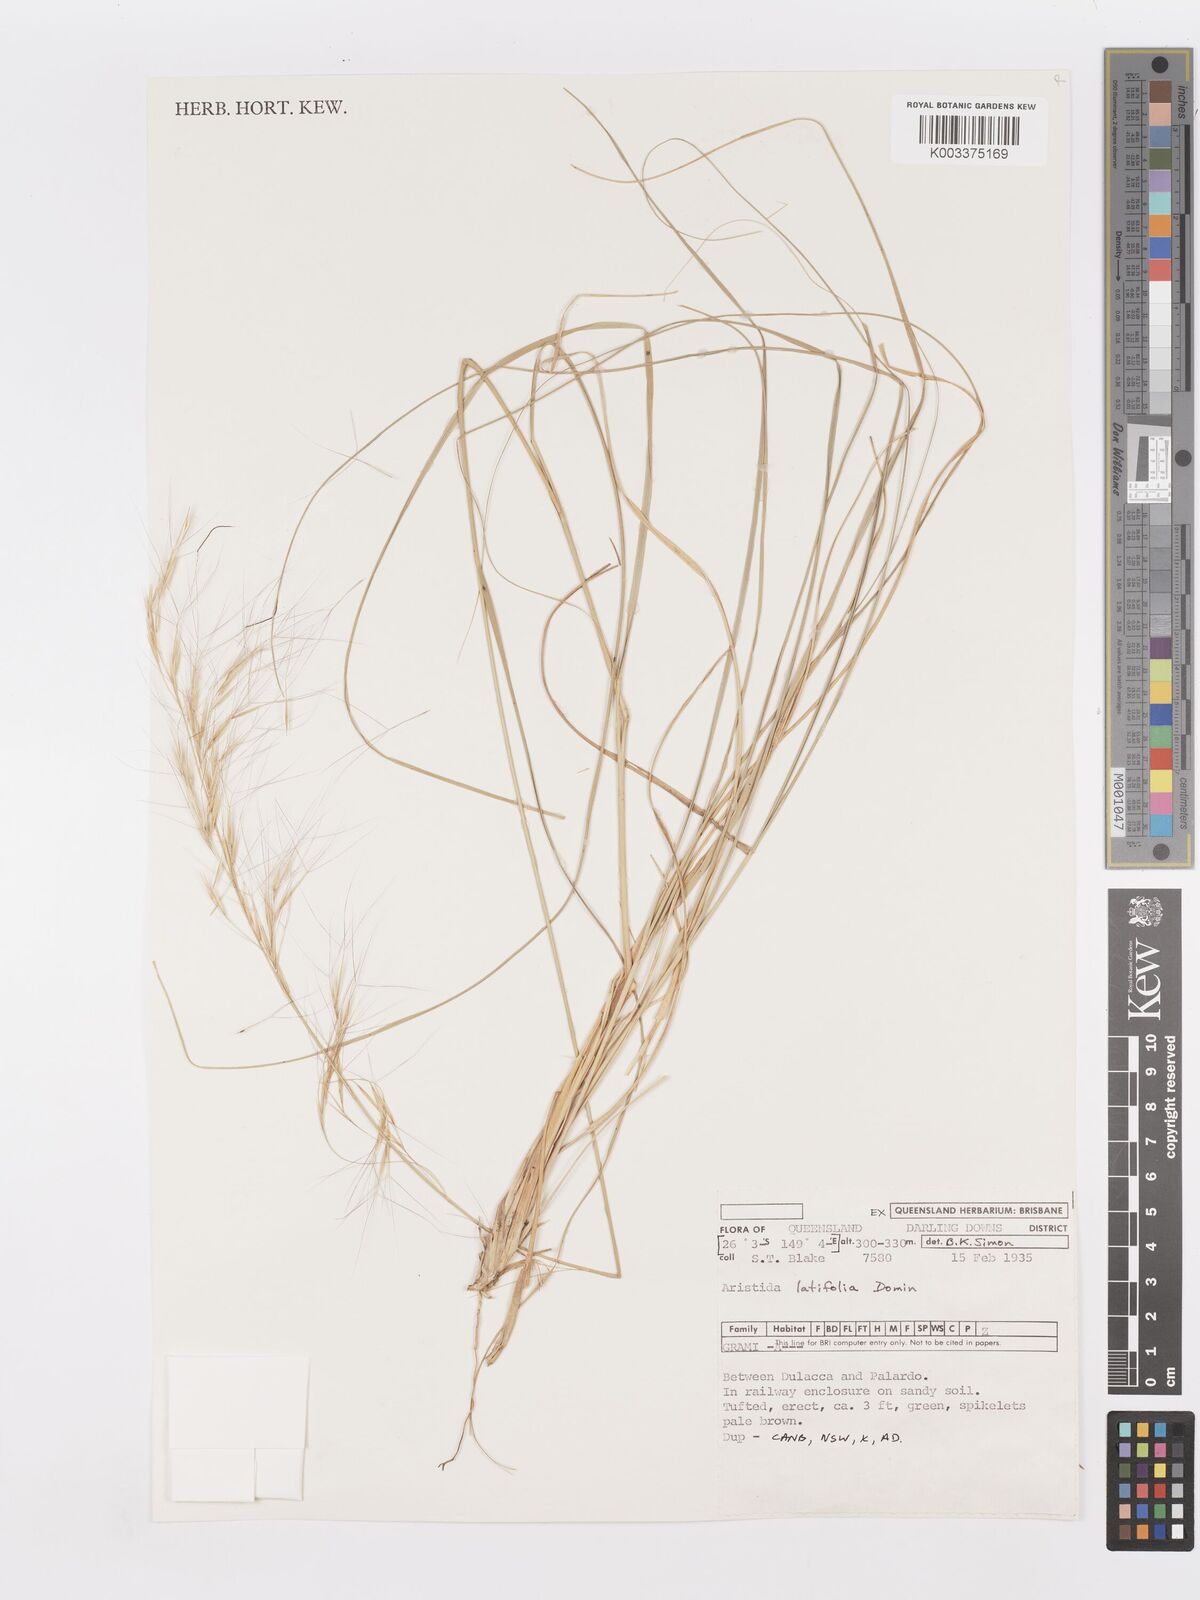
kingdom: Plantae
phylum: Tracheophyta
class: Liliopsida
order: Poales
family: Poaceae
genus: Aristida
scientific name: Aristida latifolia
